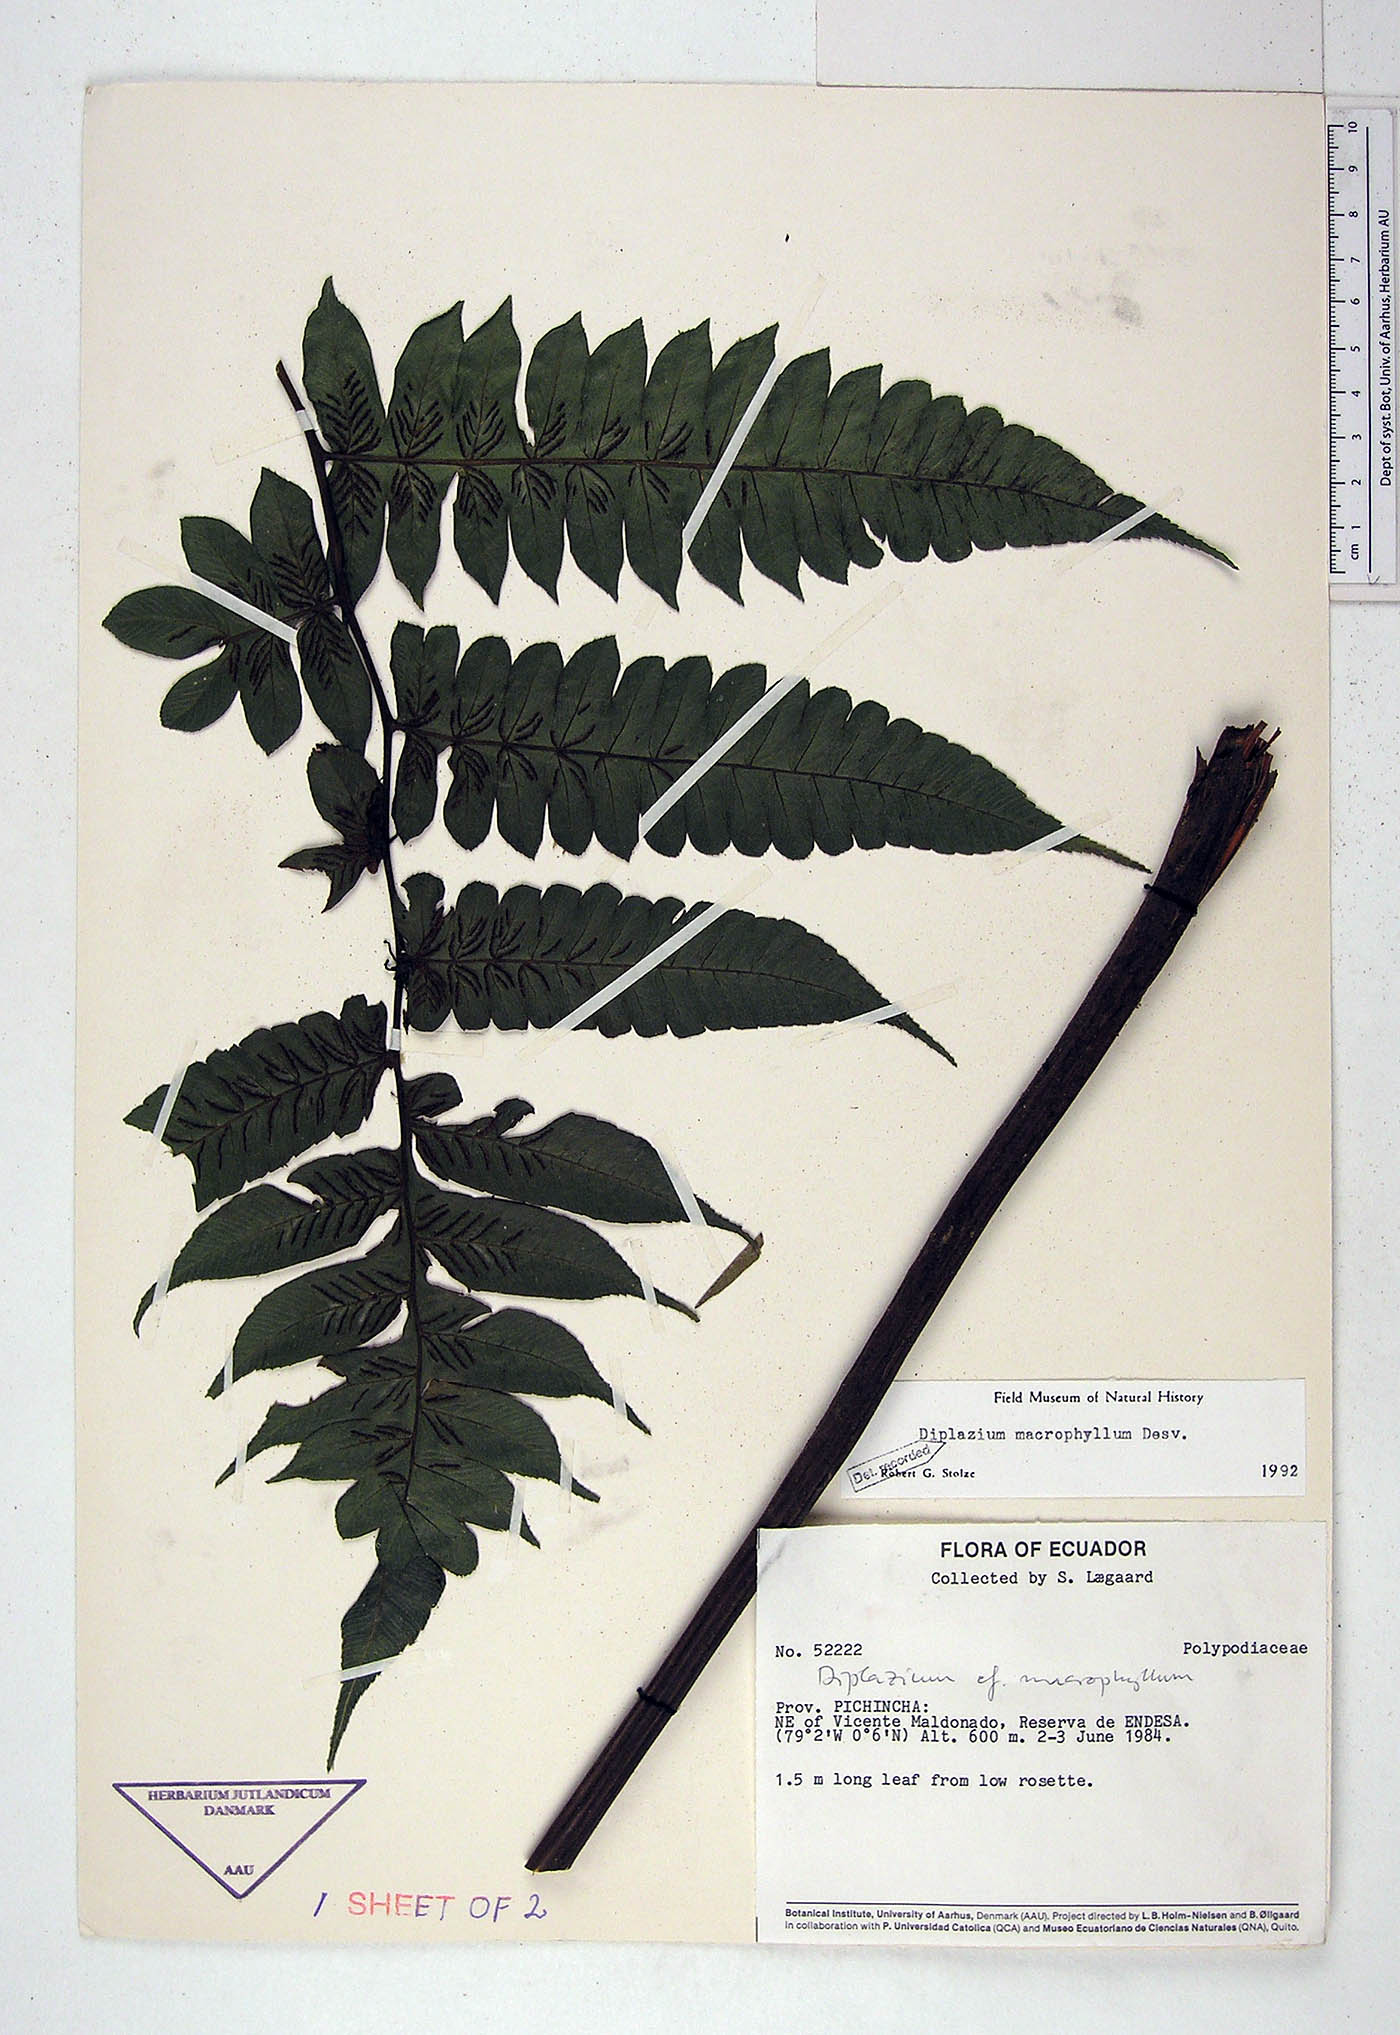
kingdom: Plantae
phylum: Tracheophyta
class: Polypodiopsida
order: Polypodiales
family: Athyriaceae
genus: Diplazium
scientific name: Diplazium macrophyllum
